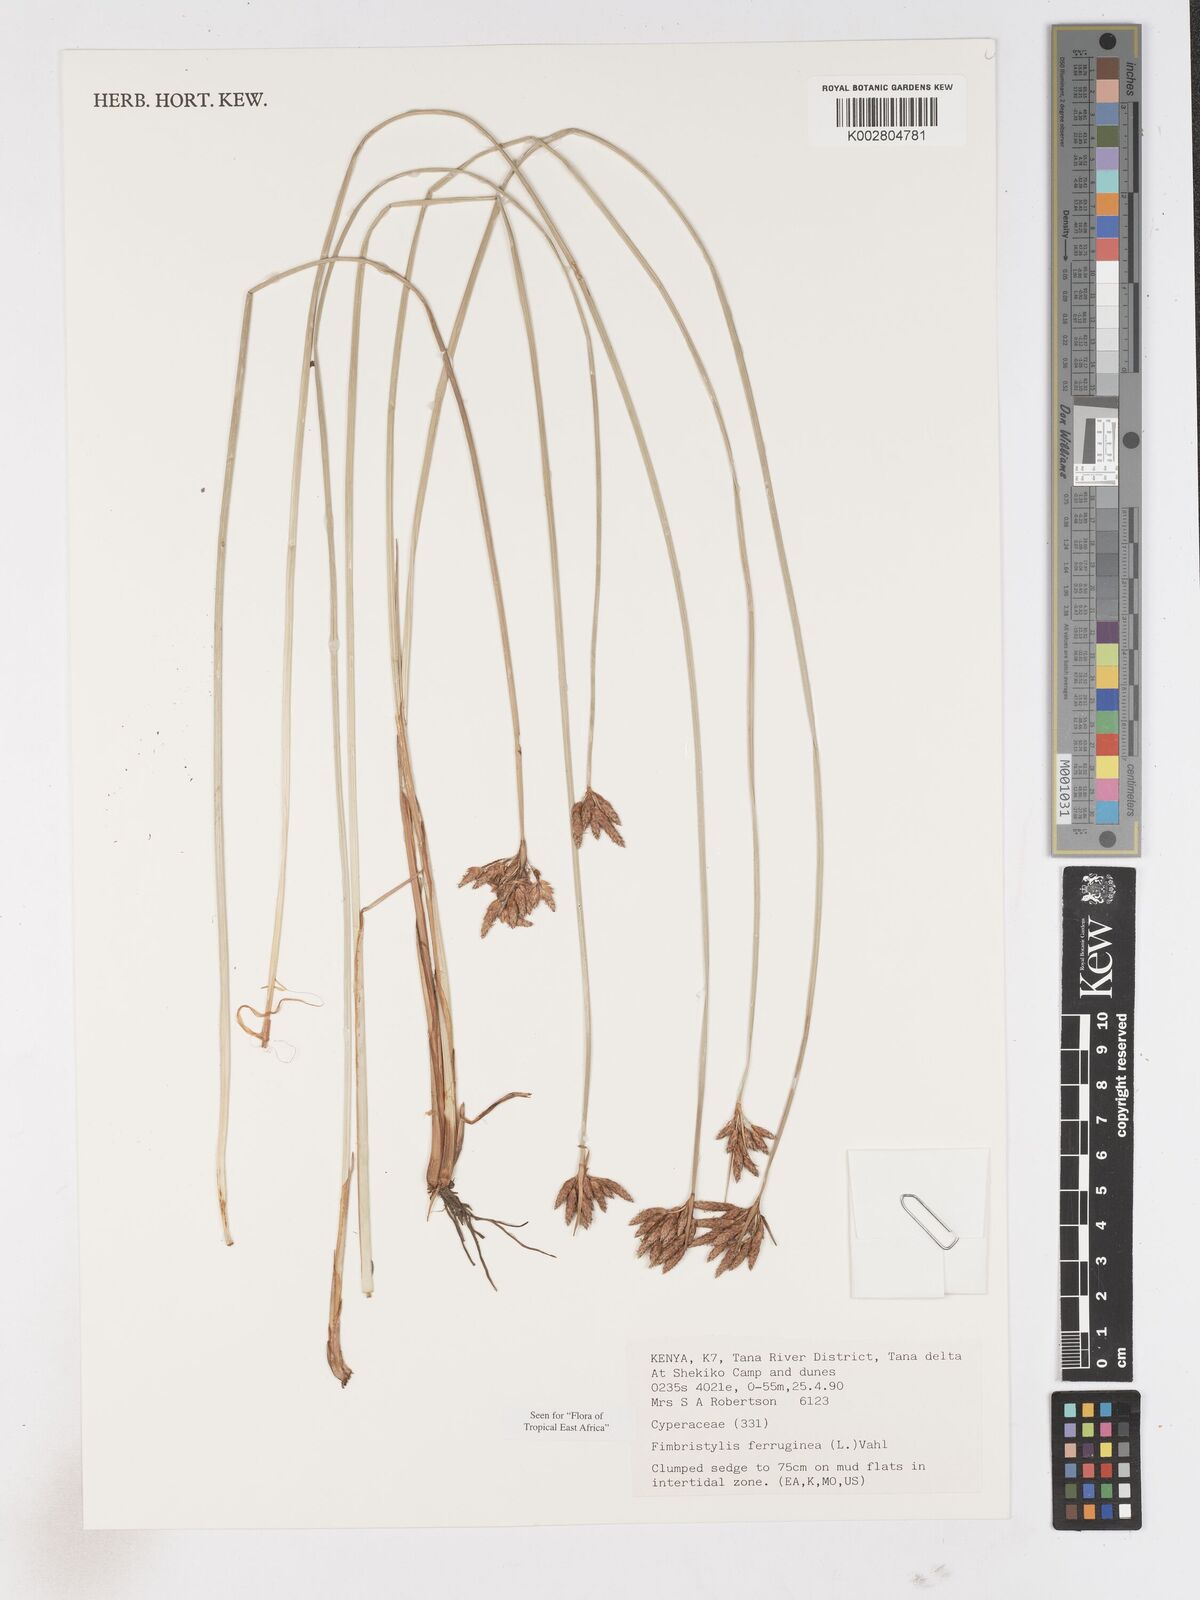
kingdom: Plantae
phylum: Tracheophyta
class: Liliopsida
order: Poales
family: Cyperaceae
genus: Fimbristylis
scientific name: Fimbristylis ferruginea
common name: West indian fimbry
